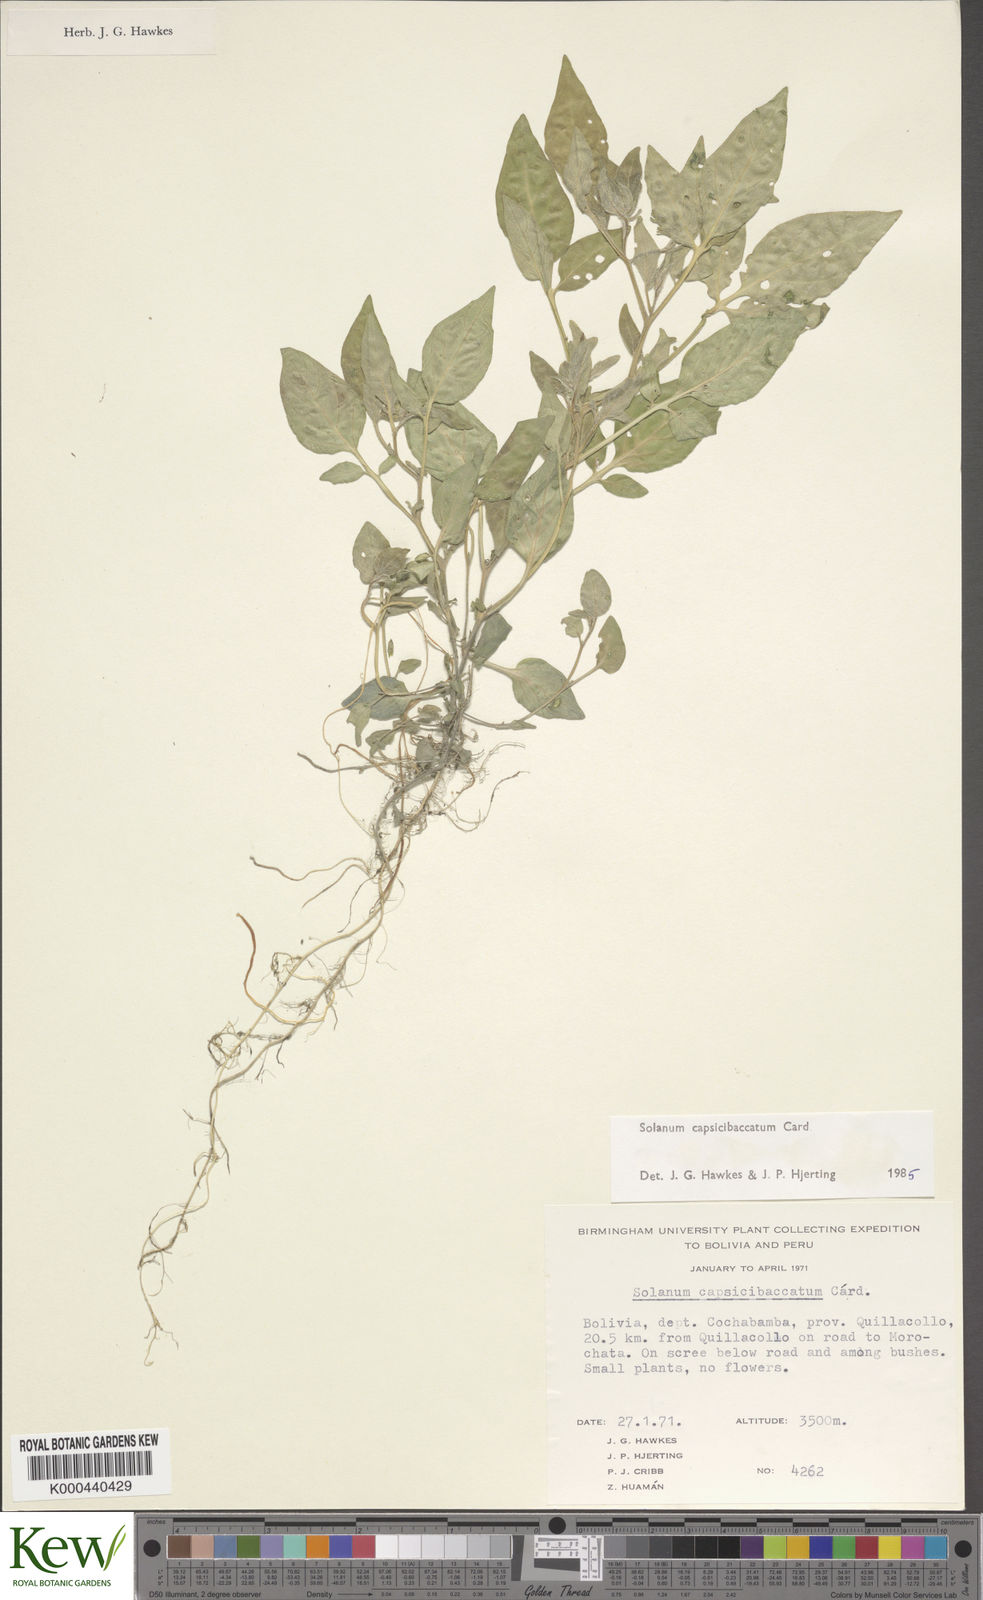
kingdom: Plantae
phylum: Tracheophyta
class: Magnoliopsida
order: Solanales
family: Solanaceae
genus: Solanum
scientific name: Solanum stipuloideum
